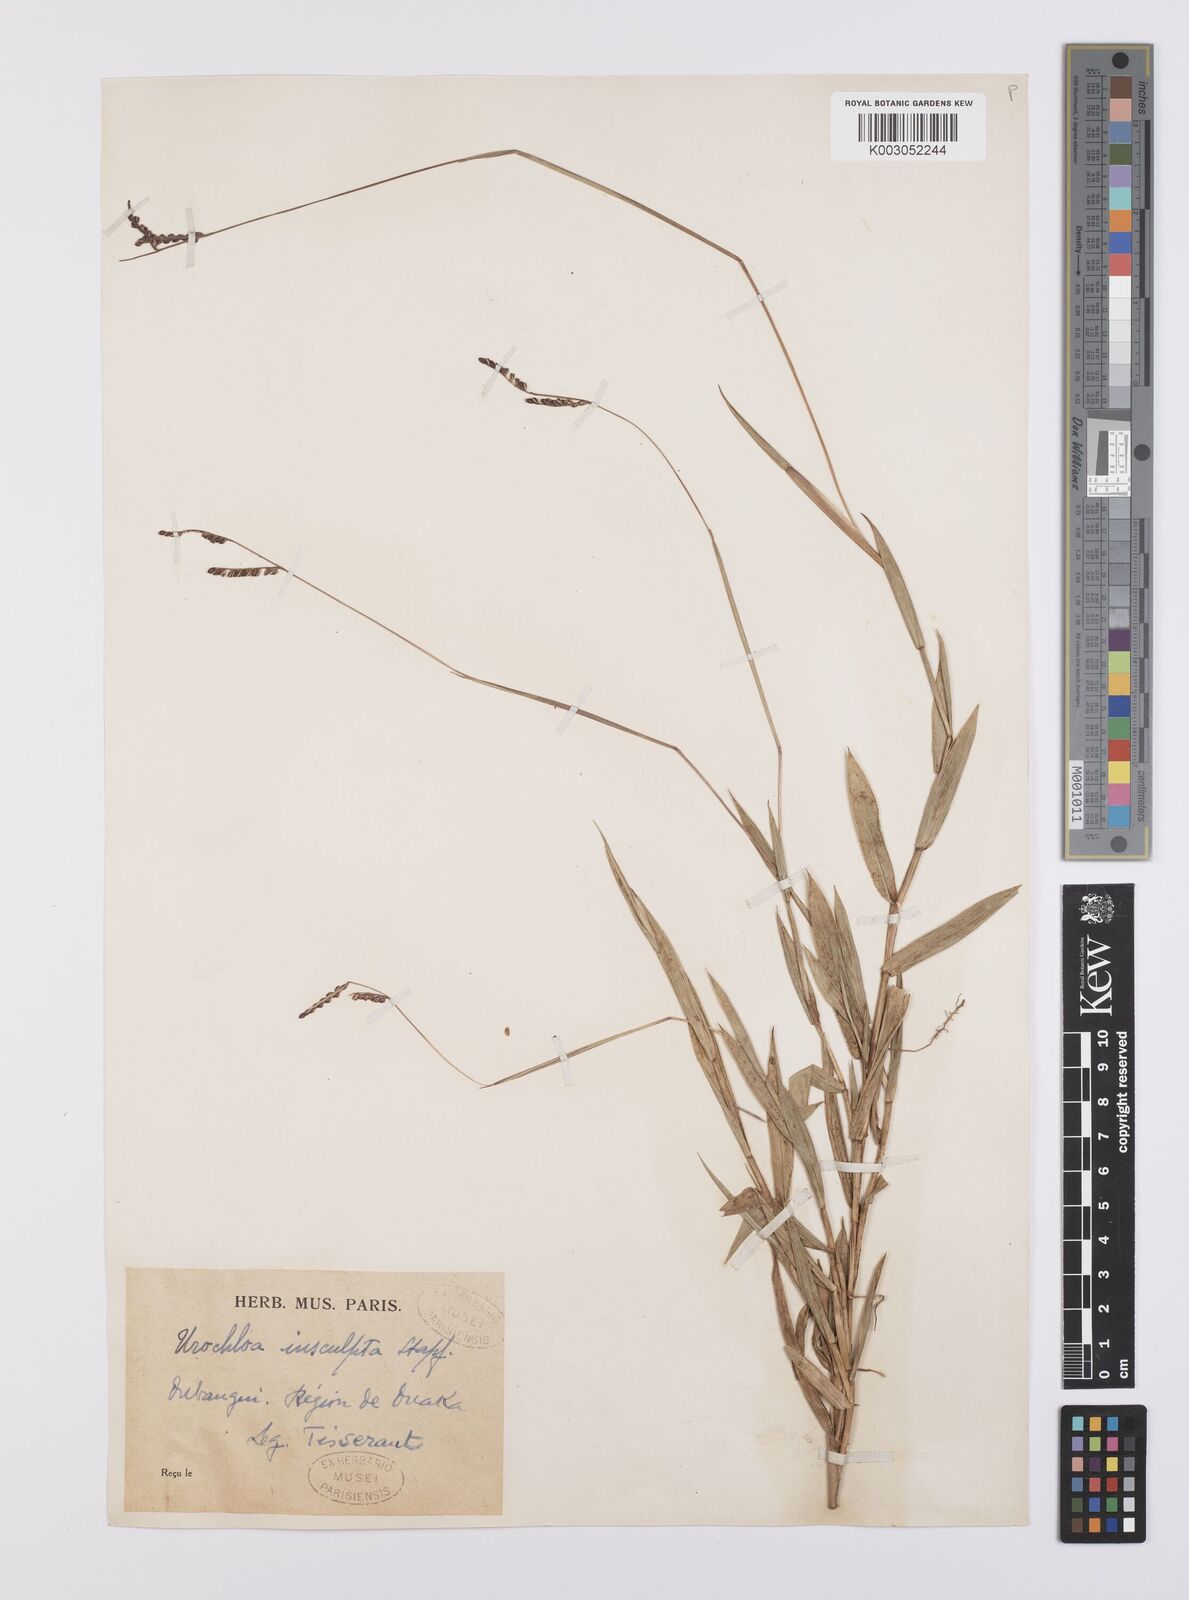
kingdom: Plantae
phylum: Tracheophyta
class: Liliopsida
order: Poales
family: Poaceae
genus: Urochloa
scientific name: Urochloa reticulata
